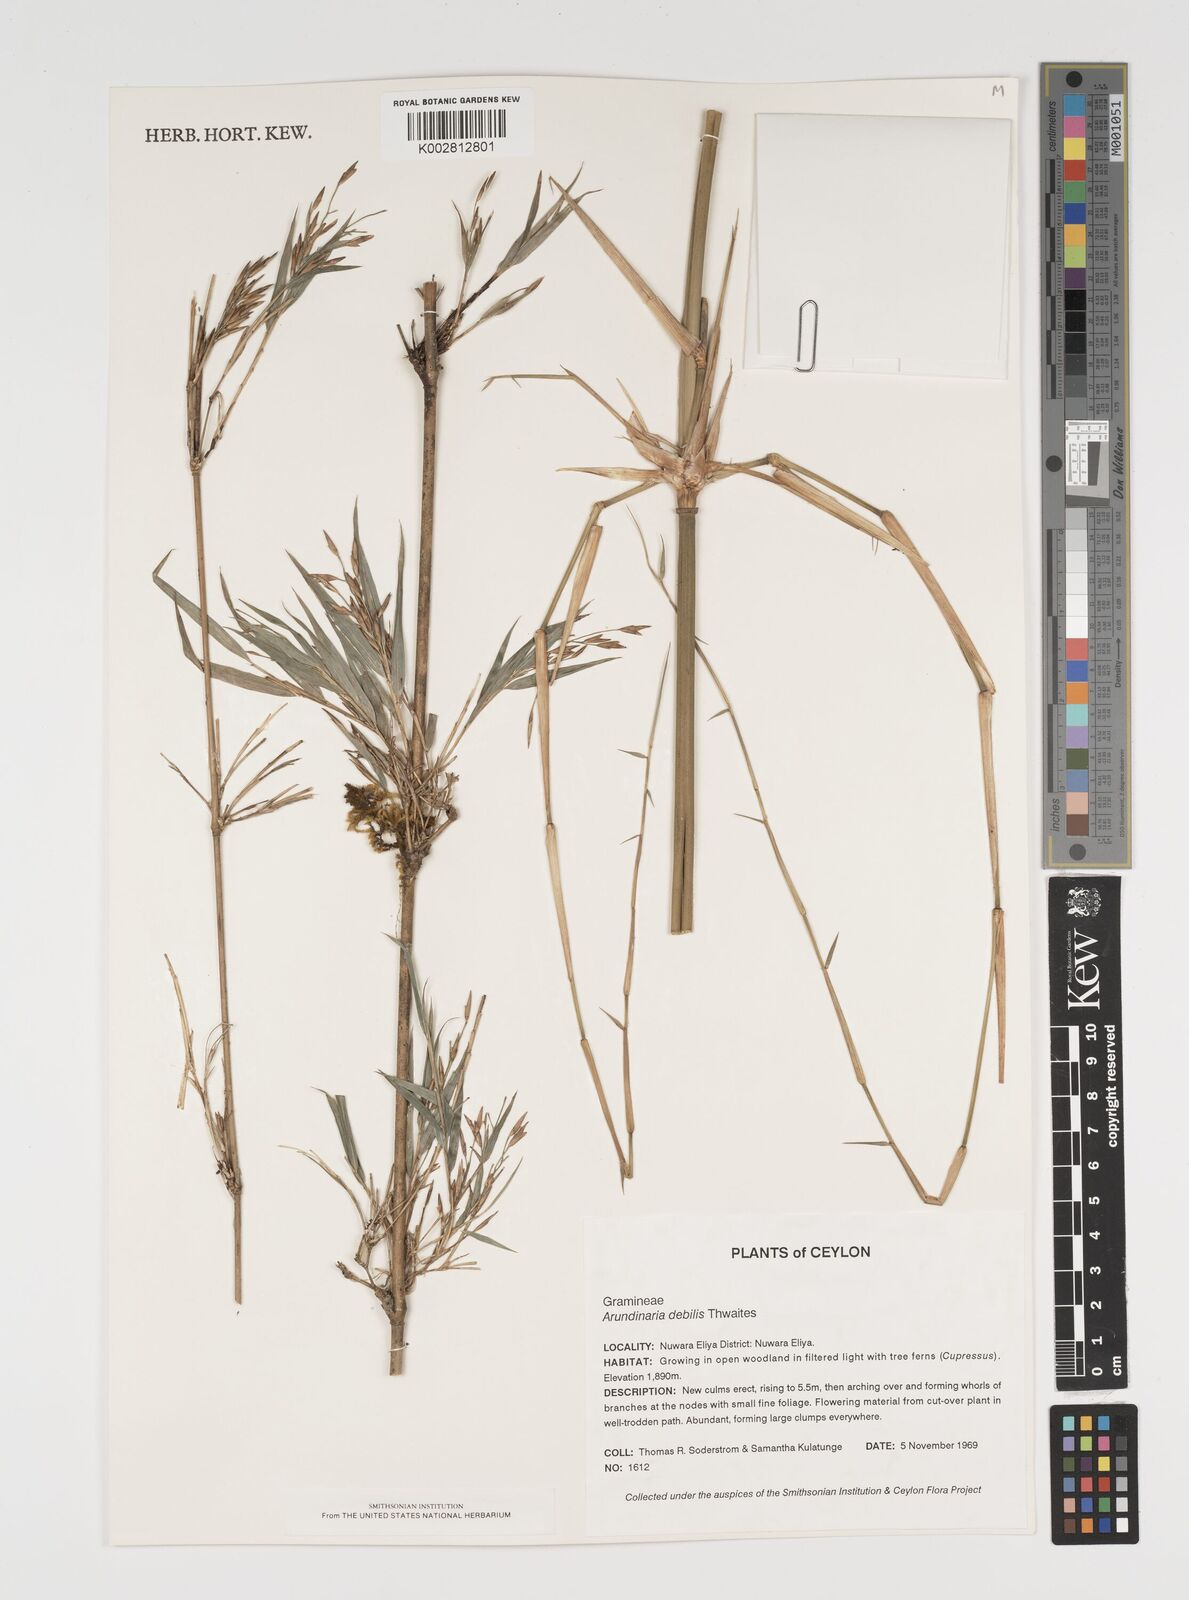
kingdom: Plantae
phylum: Tracheophyta
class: Liliopsida
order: Poales
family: Poaceae
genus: Kuruna
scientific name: Kuruna debilis
